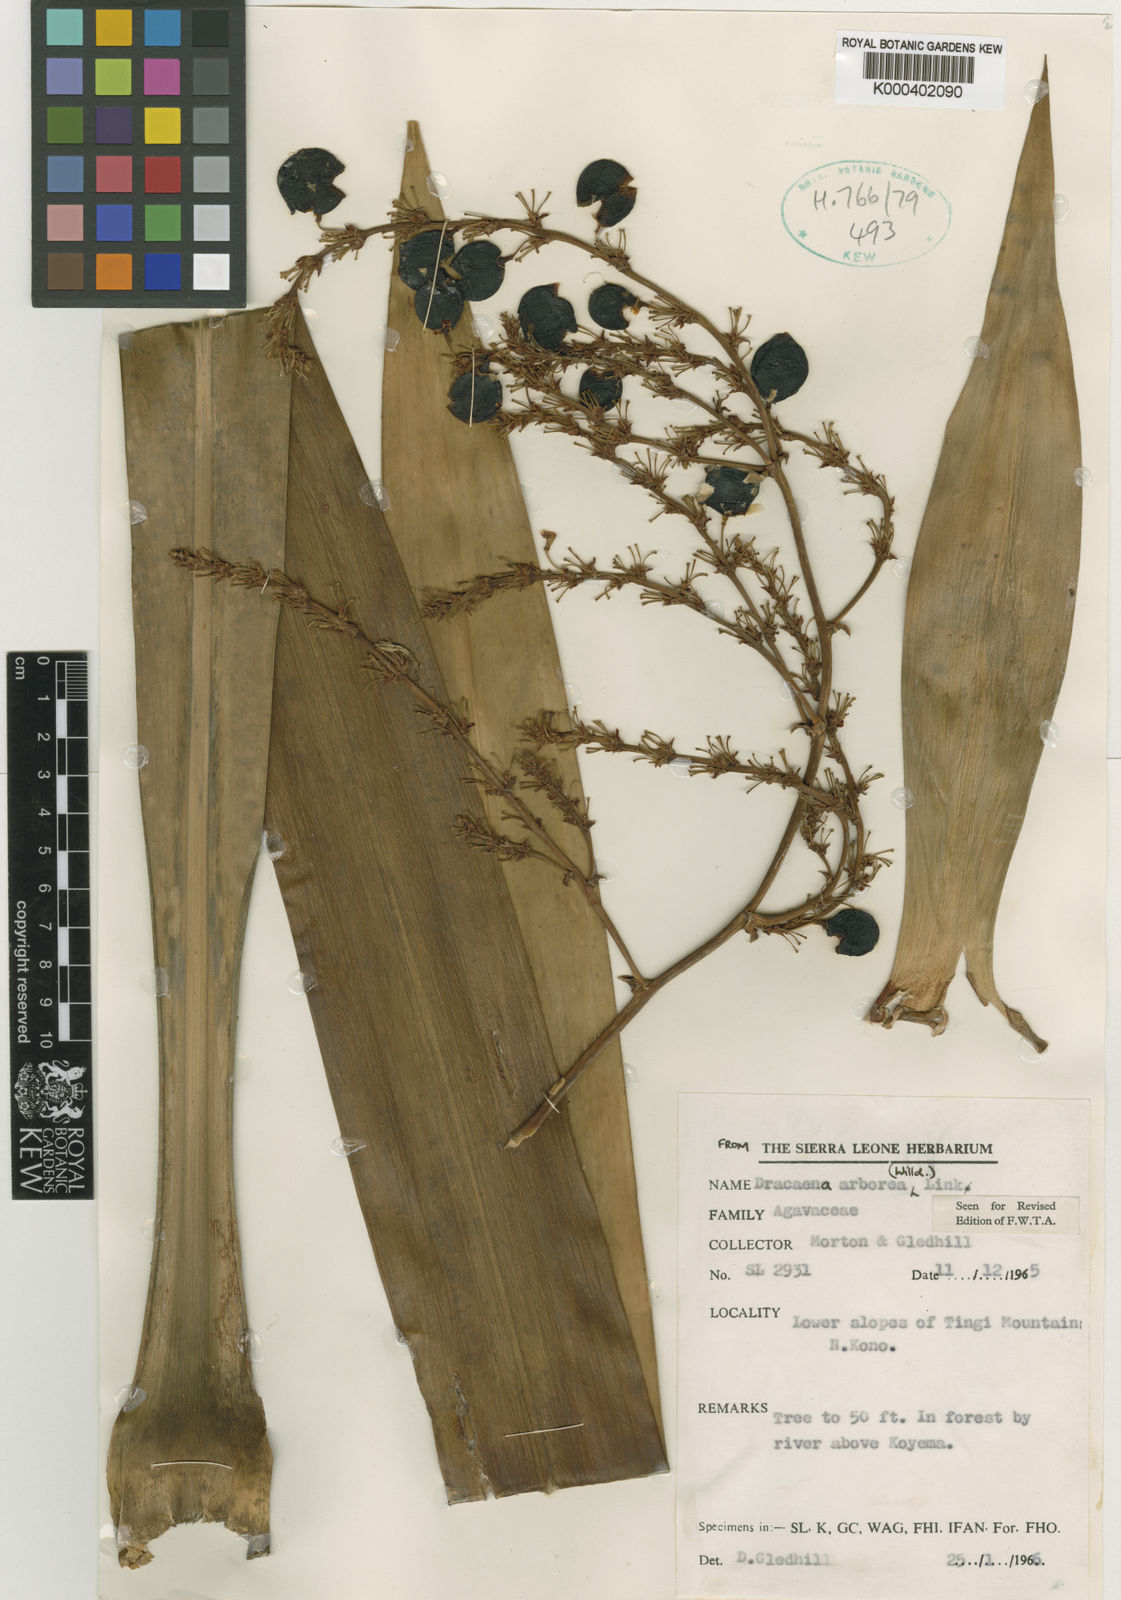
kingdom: Plantae
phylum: Tracheophyta
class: Liliopsida
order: Asparagales
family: Asparagaceae
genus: Dracaena
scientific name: Dracaena arborea
